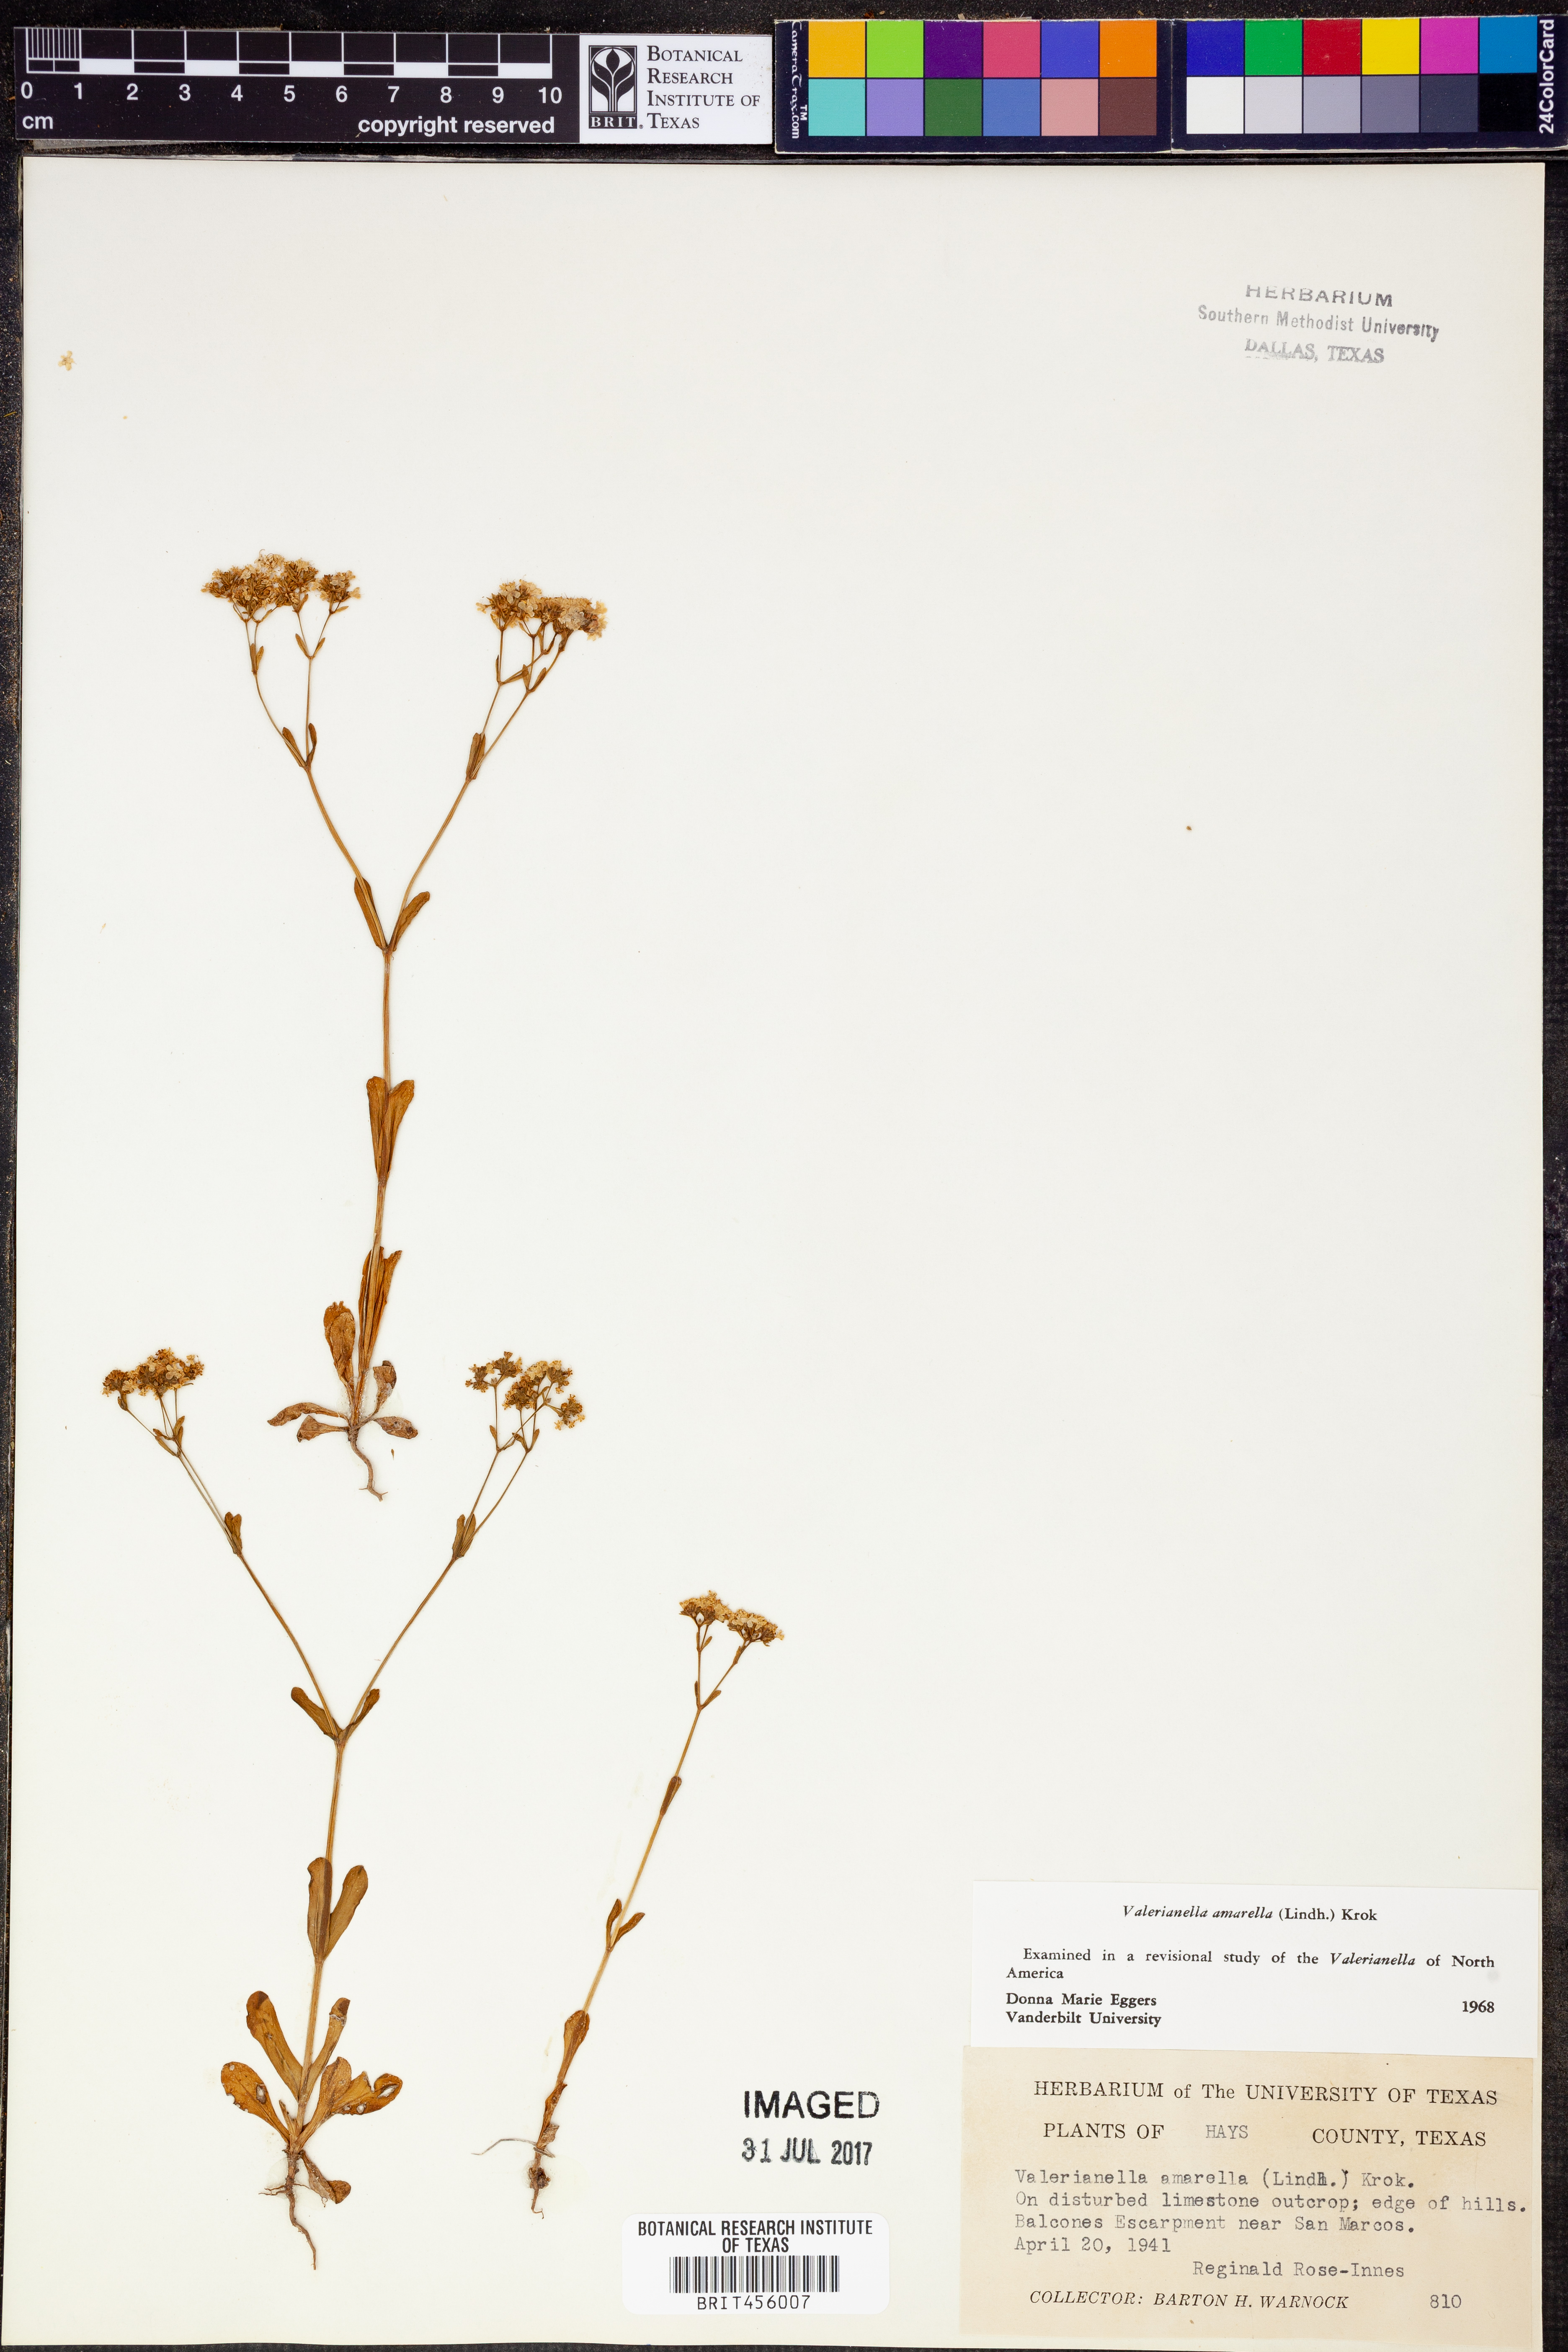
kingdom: Plantae
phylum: Tracheophyta
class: Magnoliopsida
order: Dipsacales
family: Caprifoliaceae
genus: Valerianella
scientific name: Valerianella amarella
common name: Hariy cornsalad
